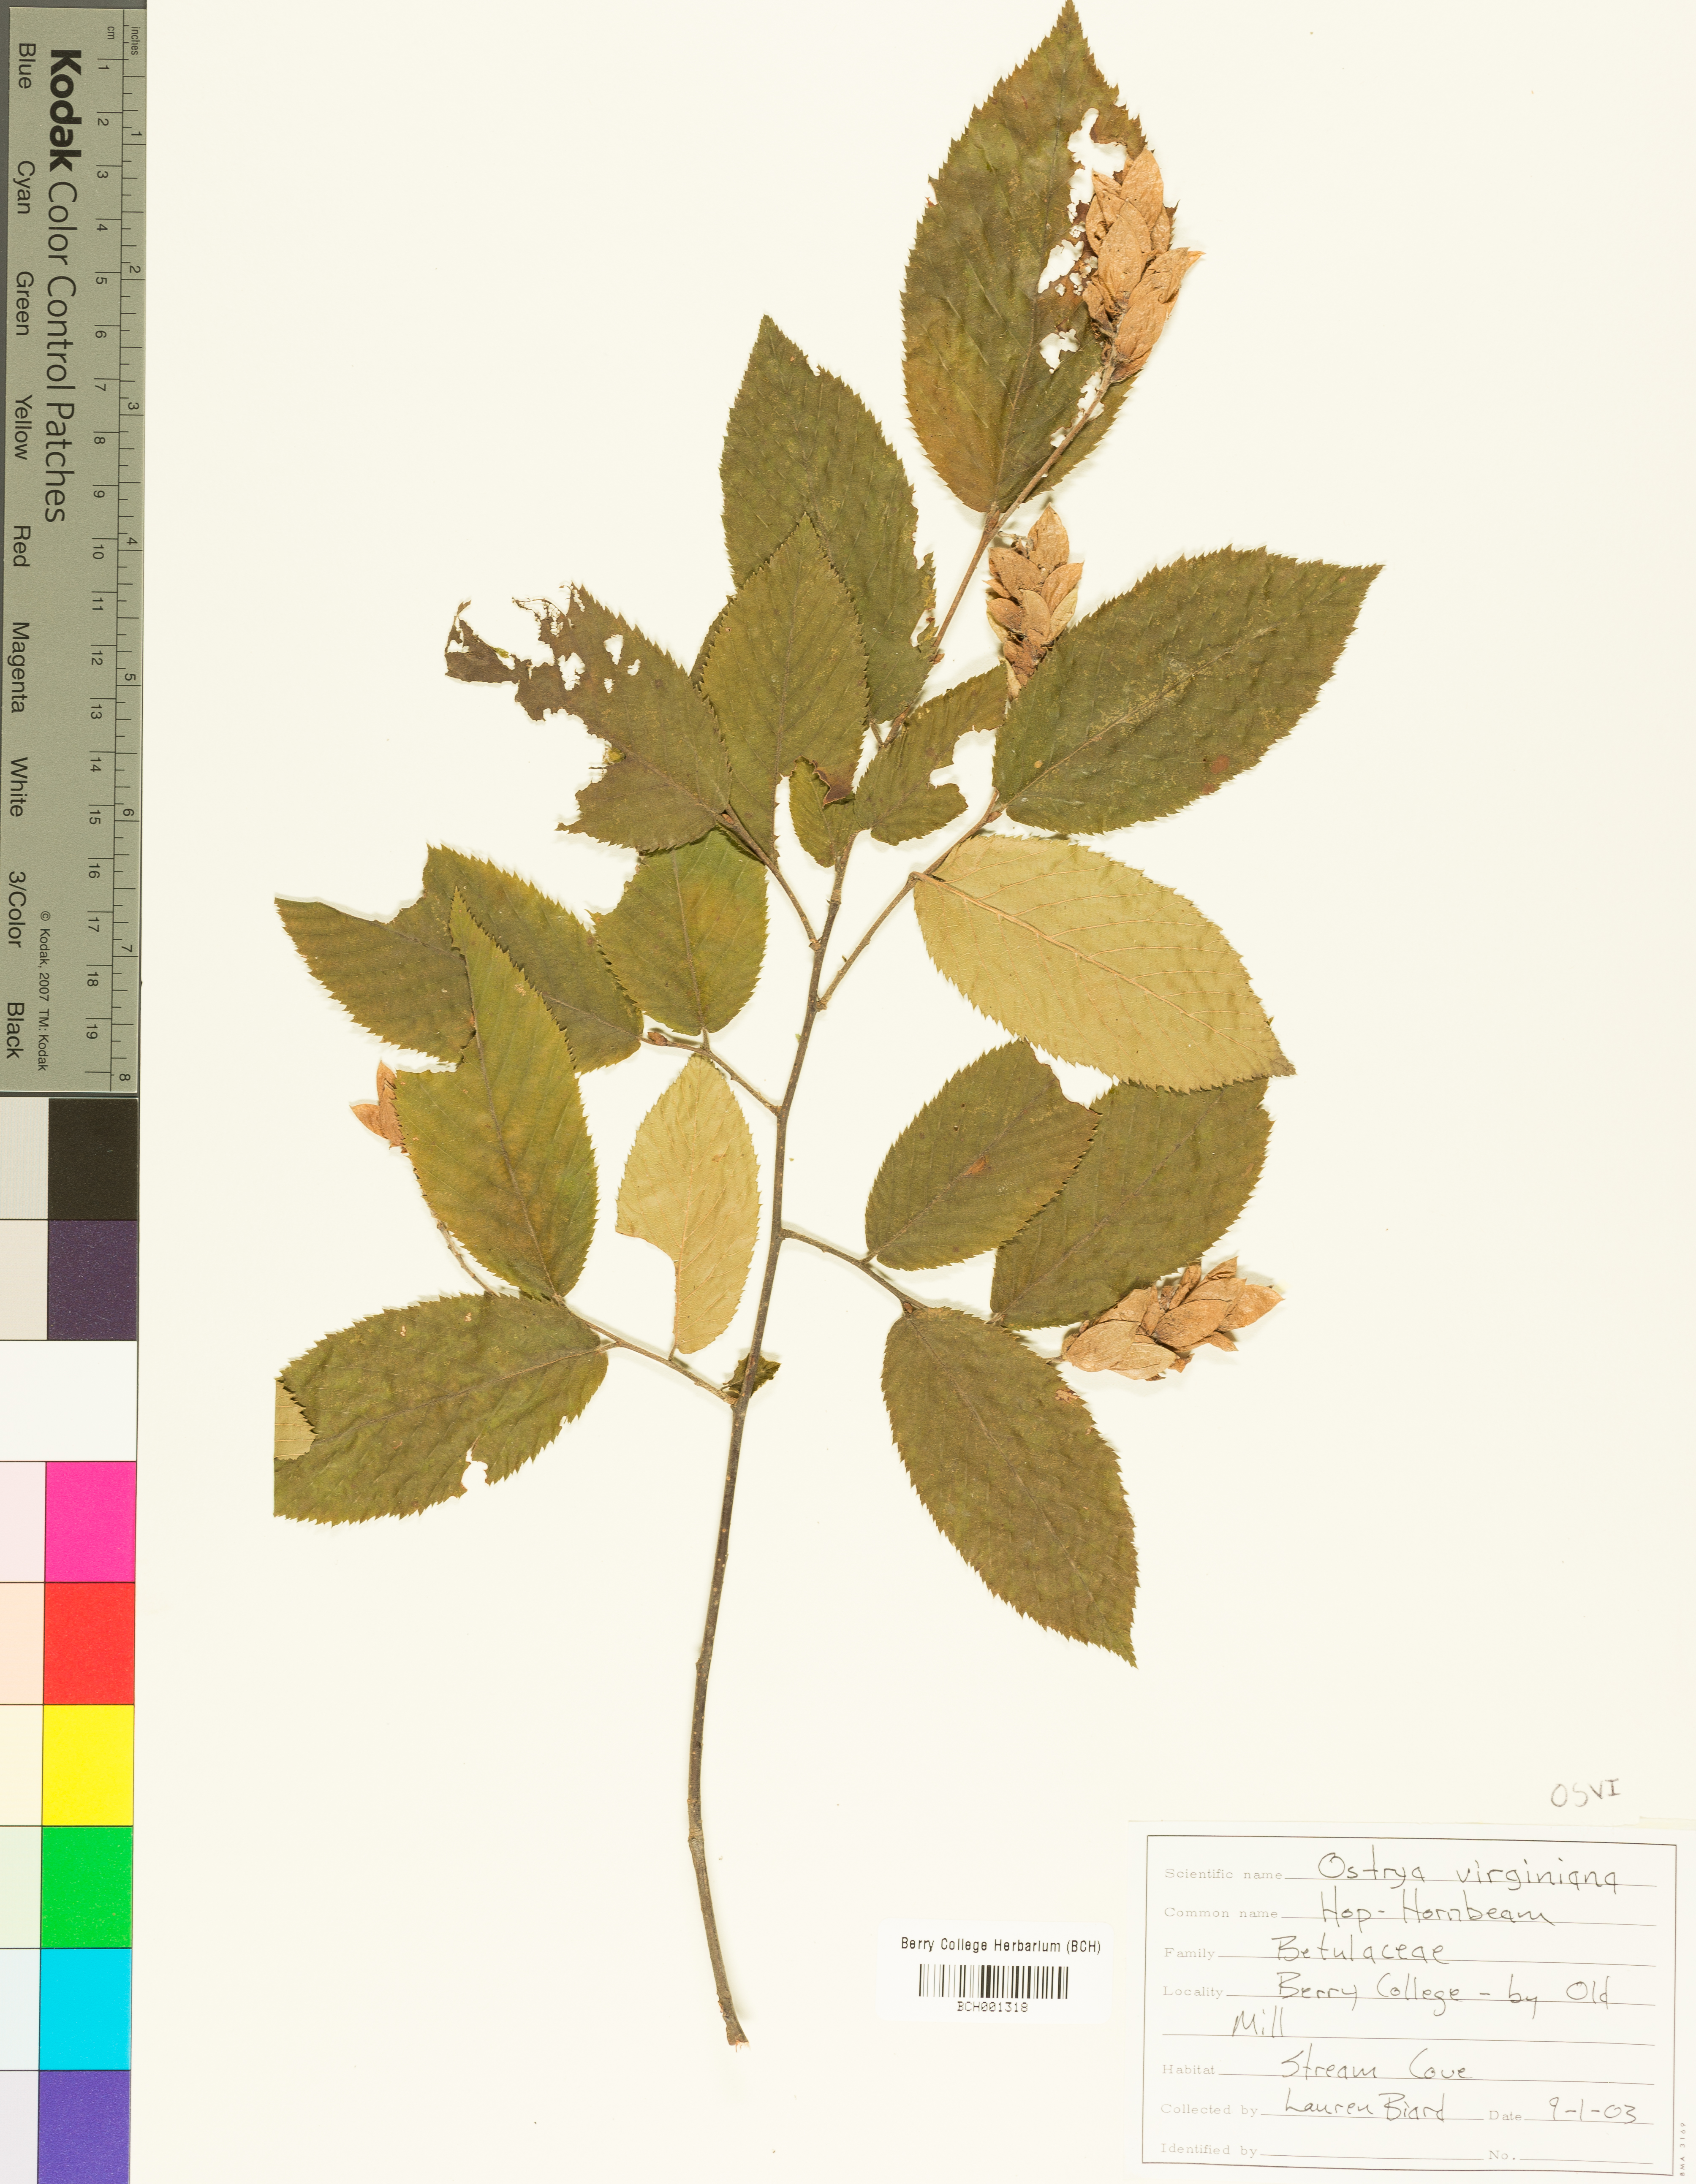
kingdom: Plantae
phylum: Tracheophyta
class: Magnoliopsida
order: Fagales
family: Betulaceae
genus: Ostrya
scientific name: Ostrya virginiana
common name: Ironwood
